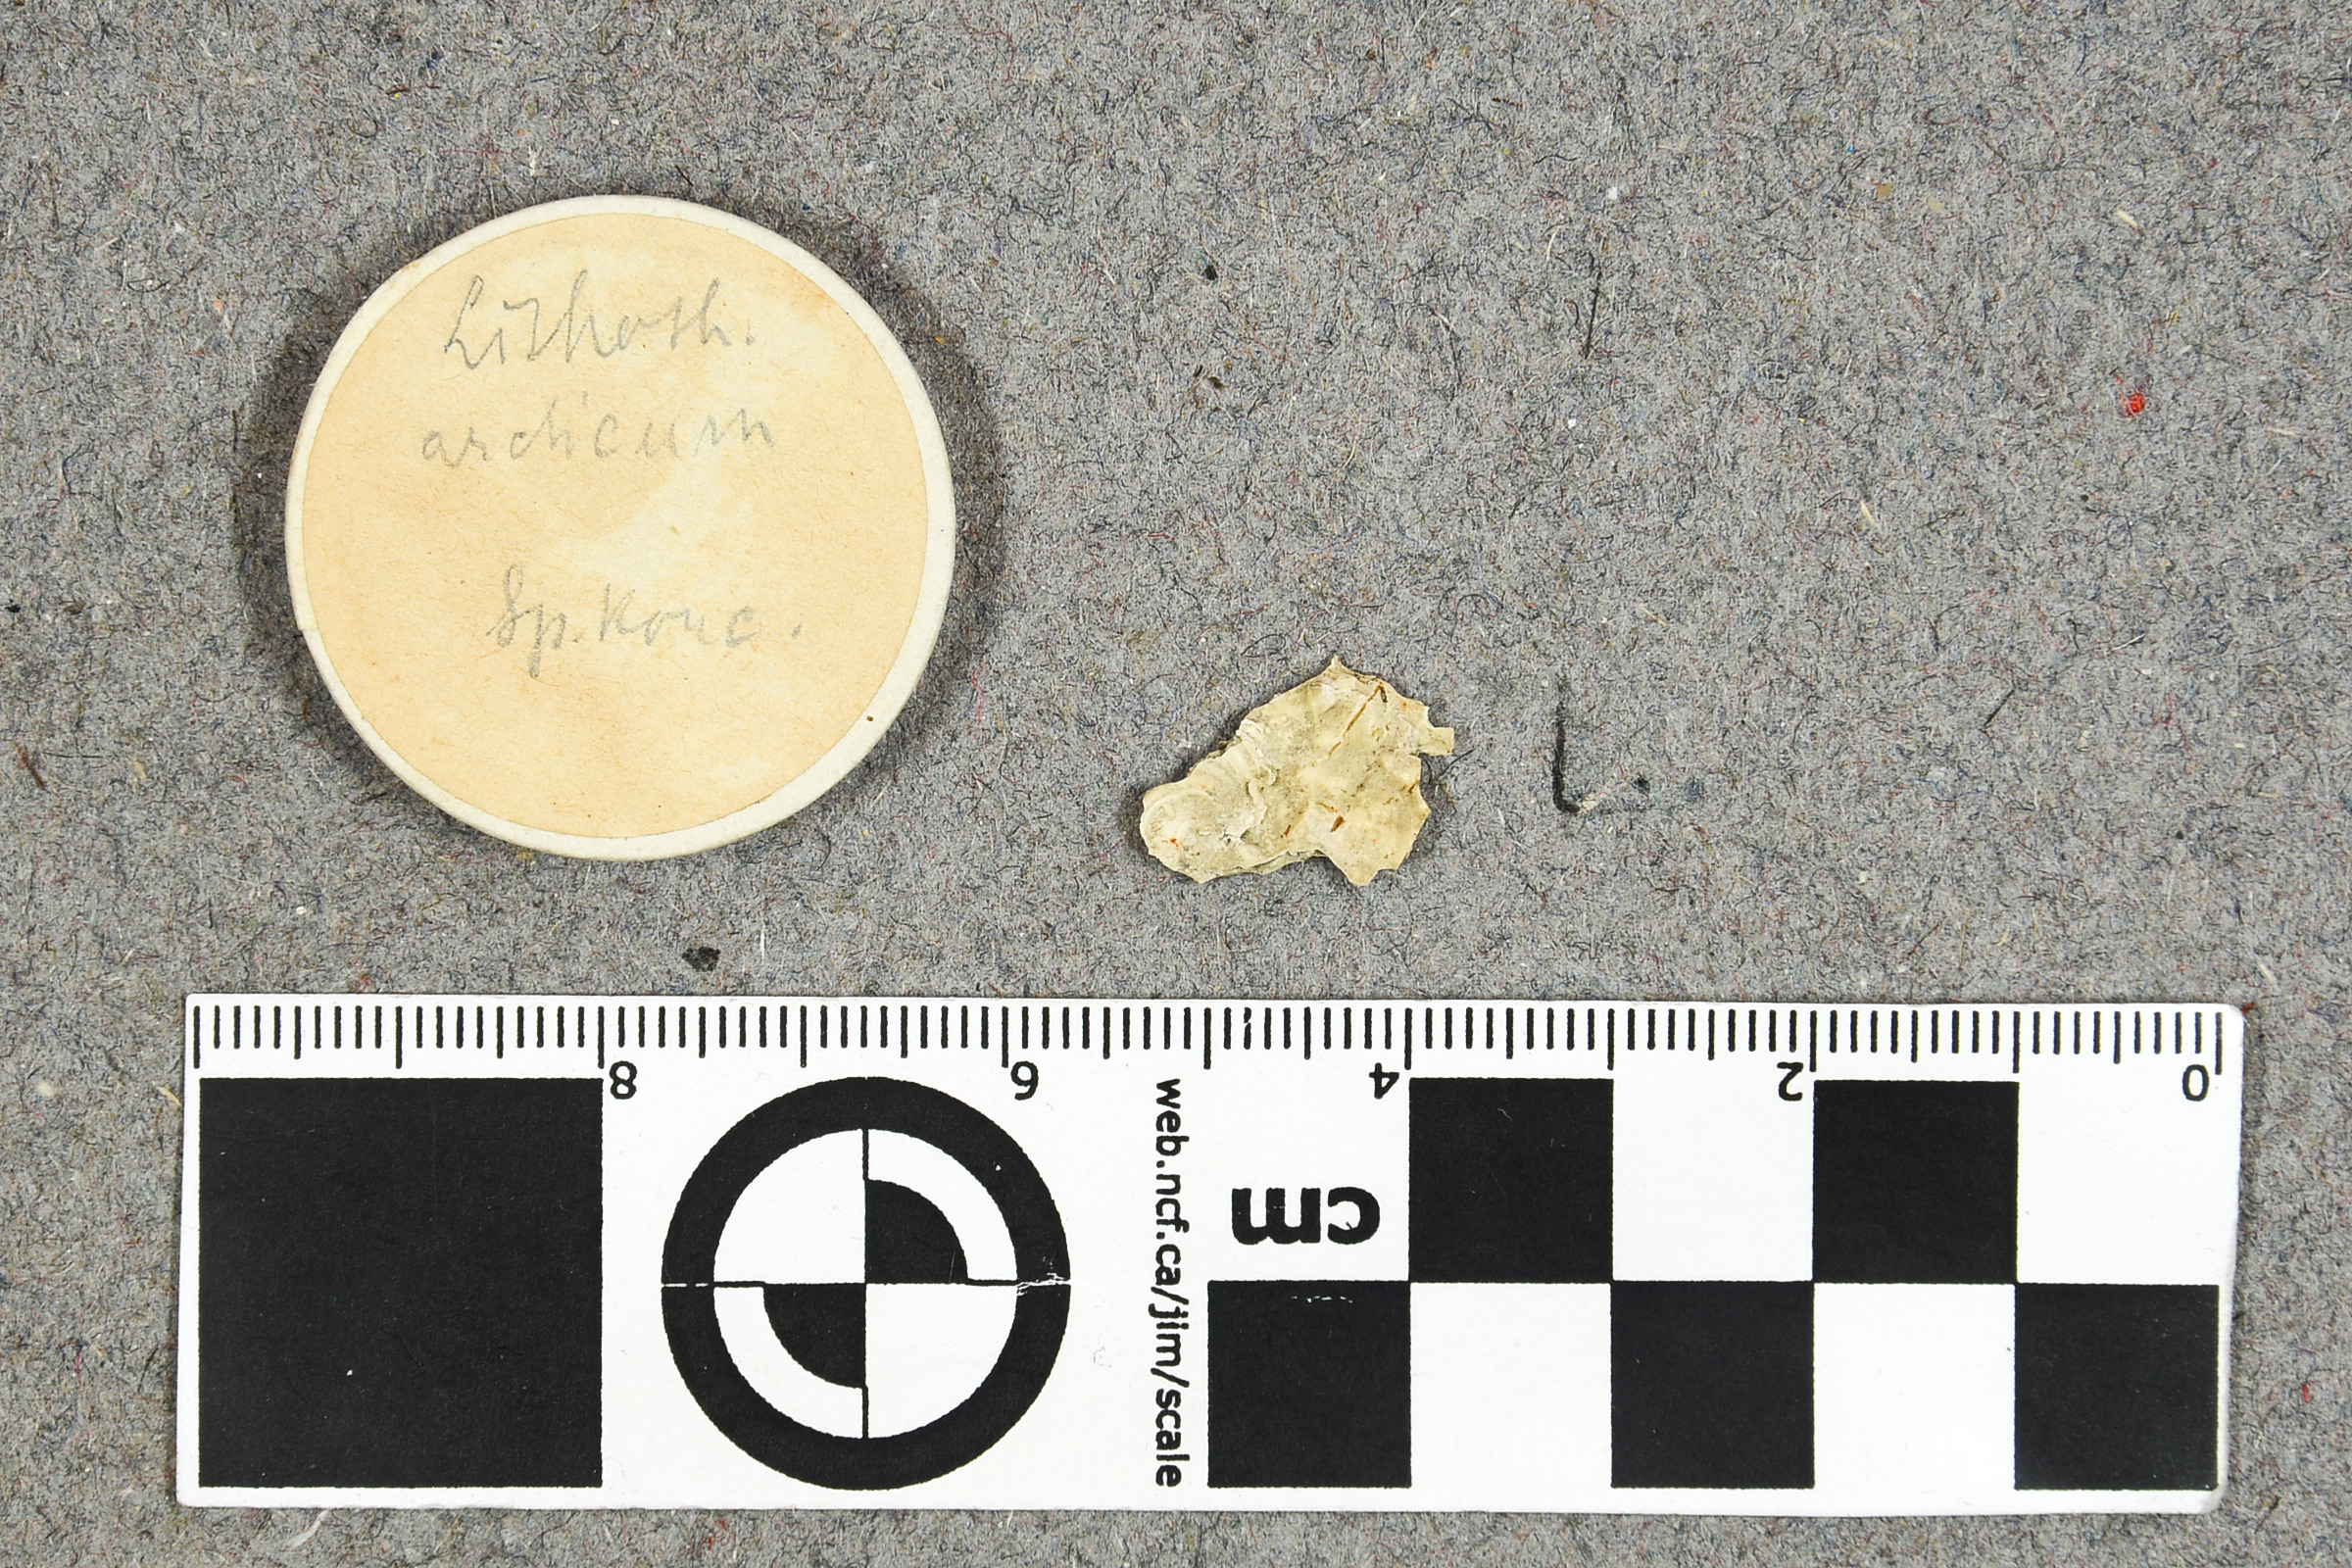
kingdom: Plantae
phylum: Rhodophyta
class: Florideophyceae
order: Corallinales
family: Mesophyllumaceae
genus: Clathromorphum
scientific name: Clathromorphum Neopolyporolithon arcticum
